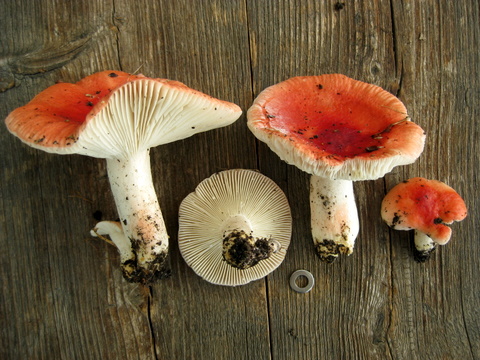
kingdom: Fungi
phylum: Basidiomycota
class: Agaricomycetes
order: Russulales
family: Russulaceae
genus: Russula
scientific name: Russula luteotacta
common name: gulplettet gift-skørhat
